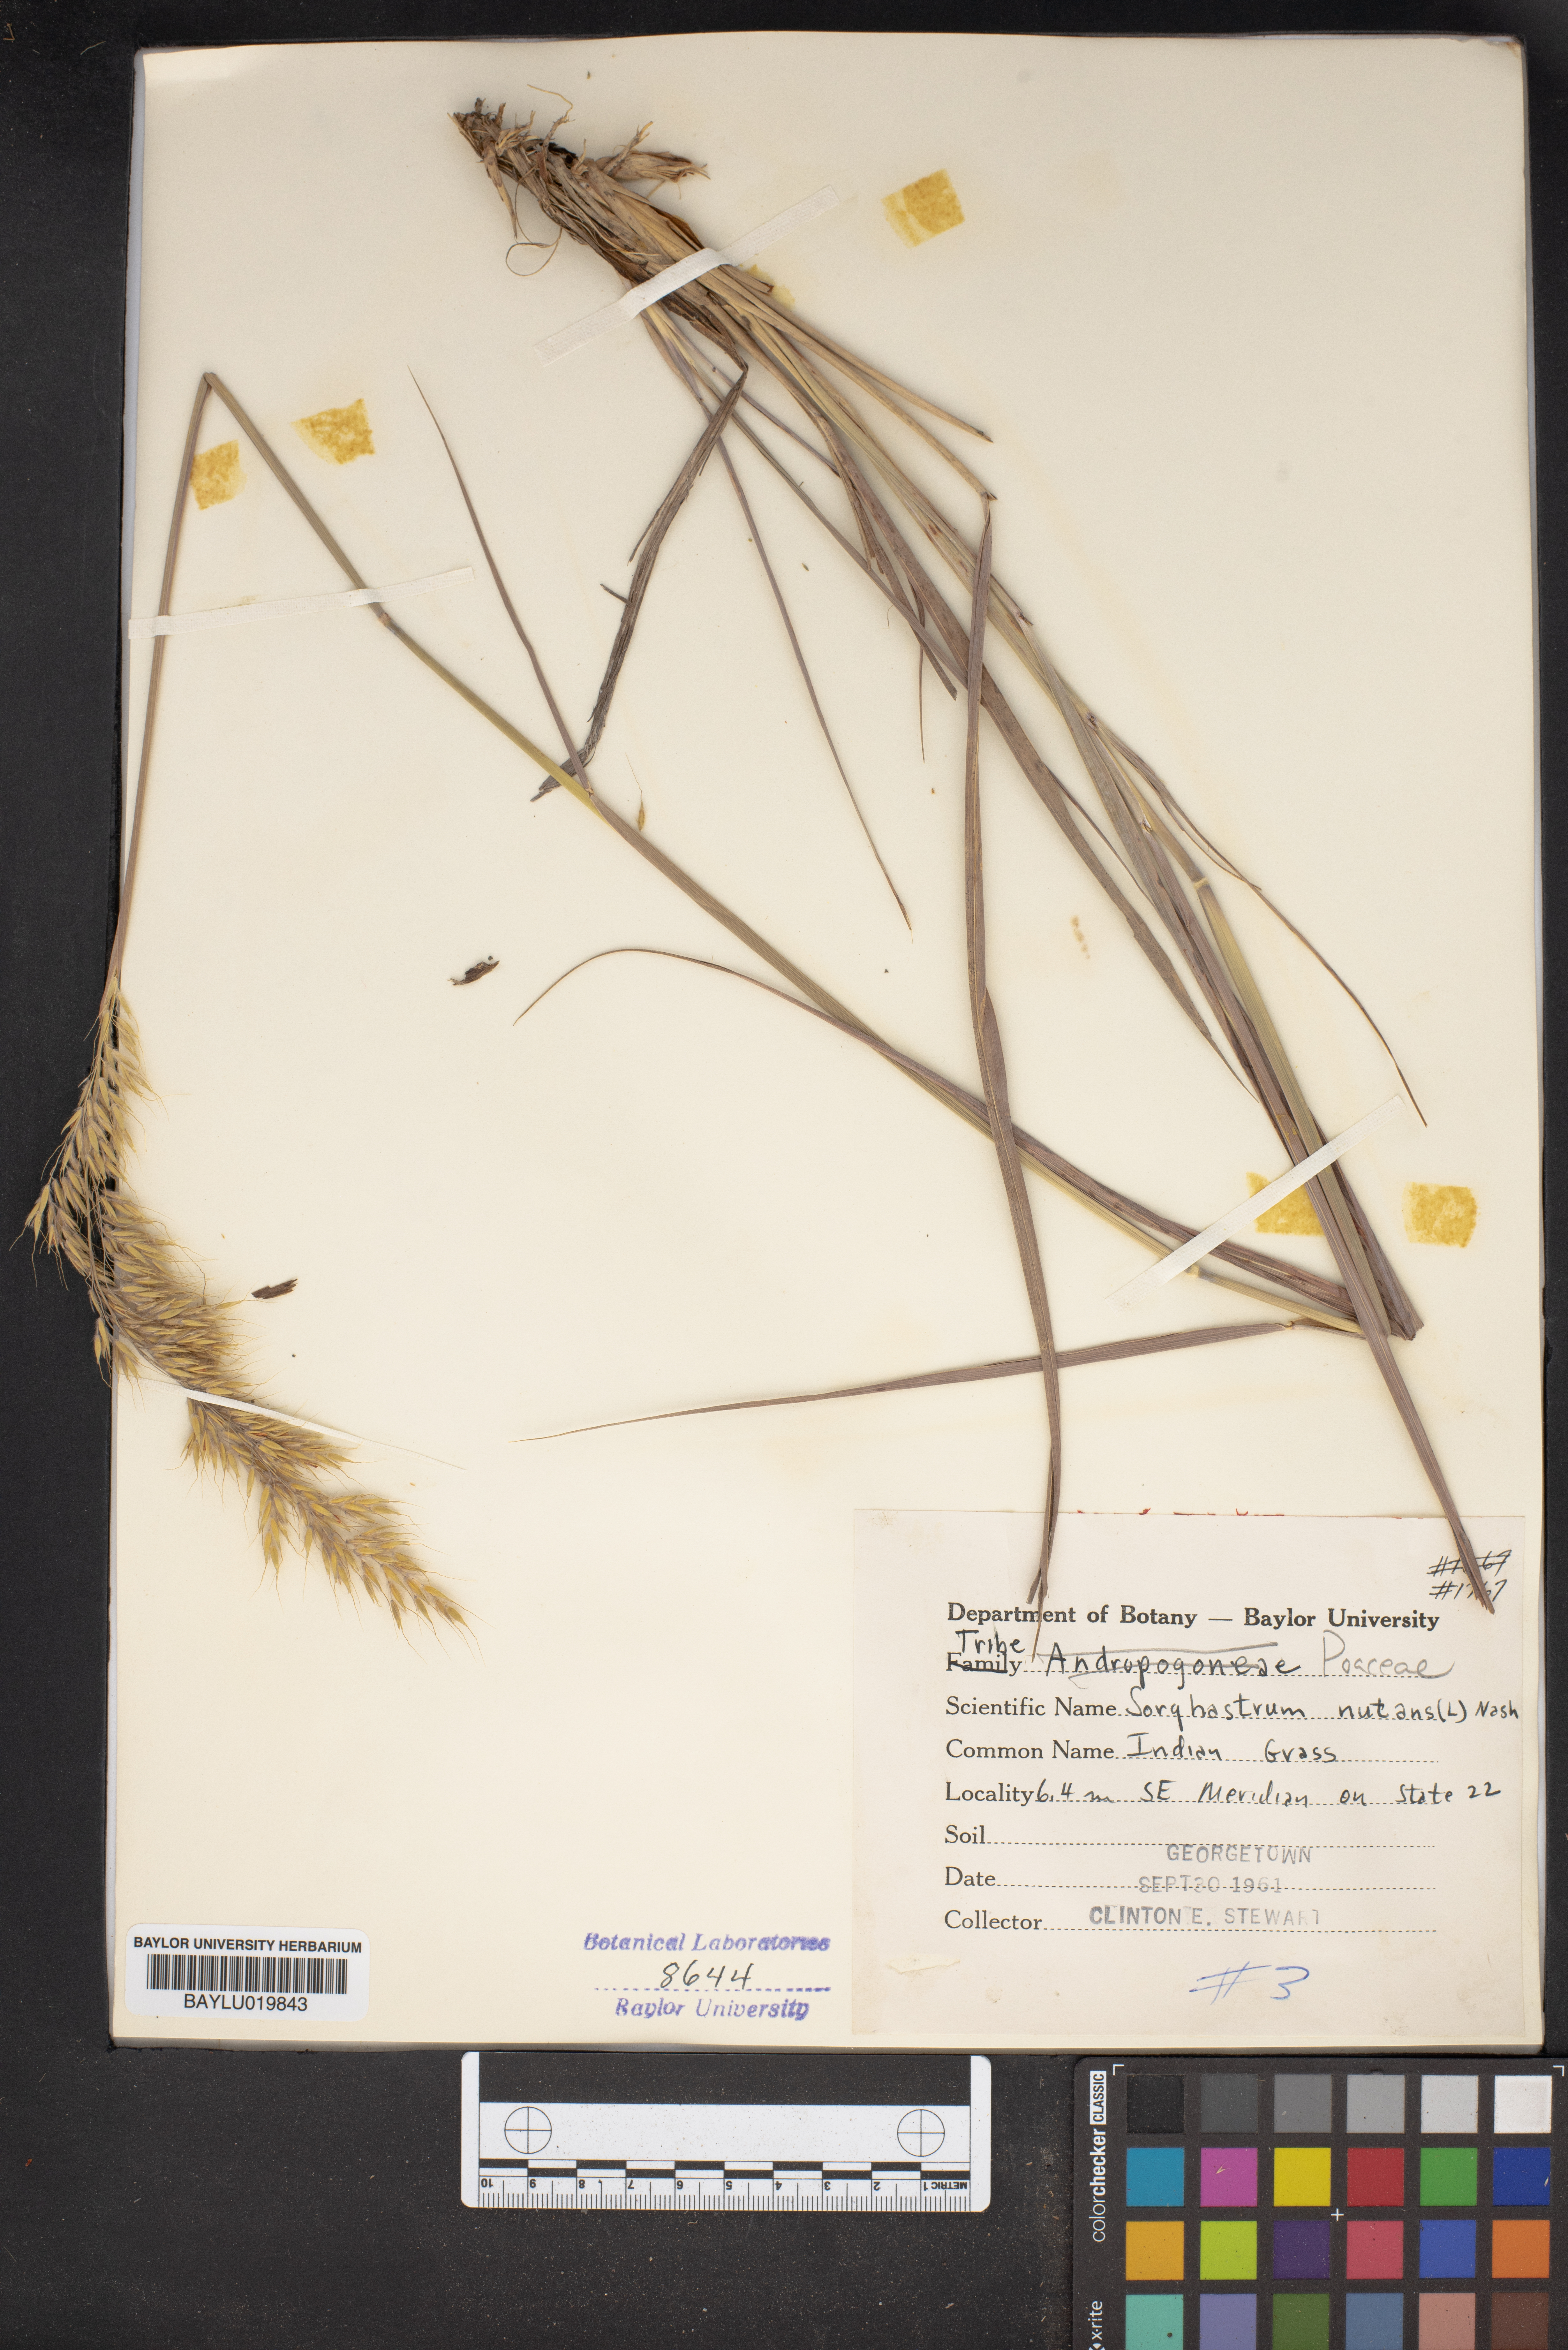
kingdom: Plantae
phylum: Tracheophyta
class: Liliopsida
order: Poales
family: Poaceae
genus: Sorghastrum
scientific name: Sorghastrum nutans
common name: Indian grass
